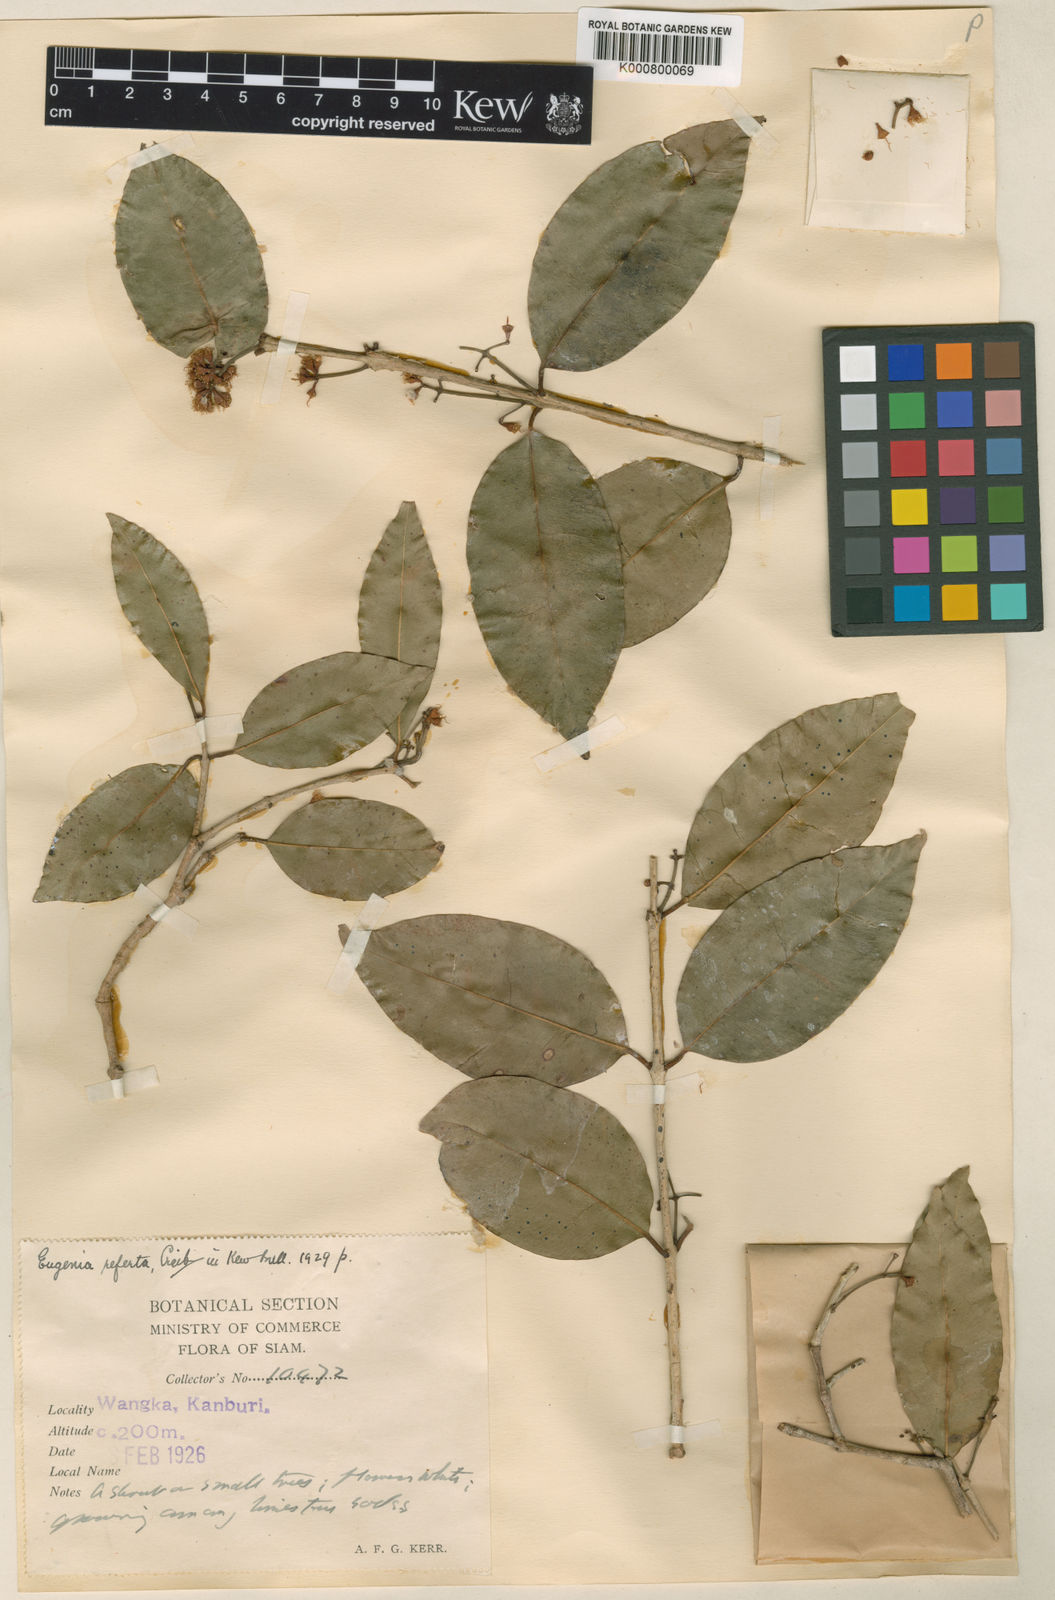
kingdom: Plantae
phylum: Tracheophyta
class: Magnoliopsida
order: Myrtales
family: Myrtaceae
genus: Syzygium
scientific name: Syzygium refertum
